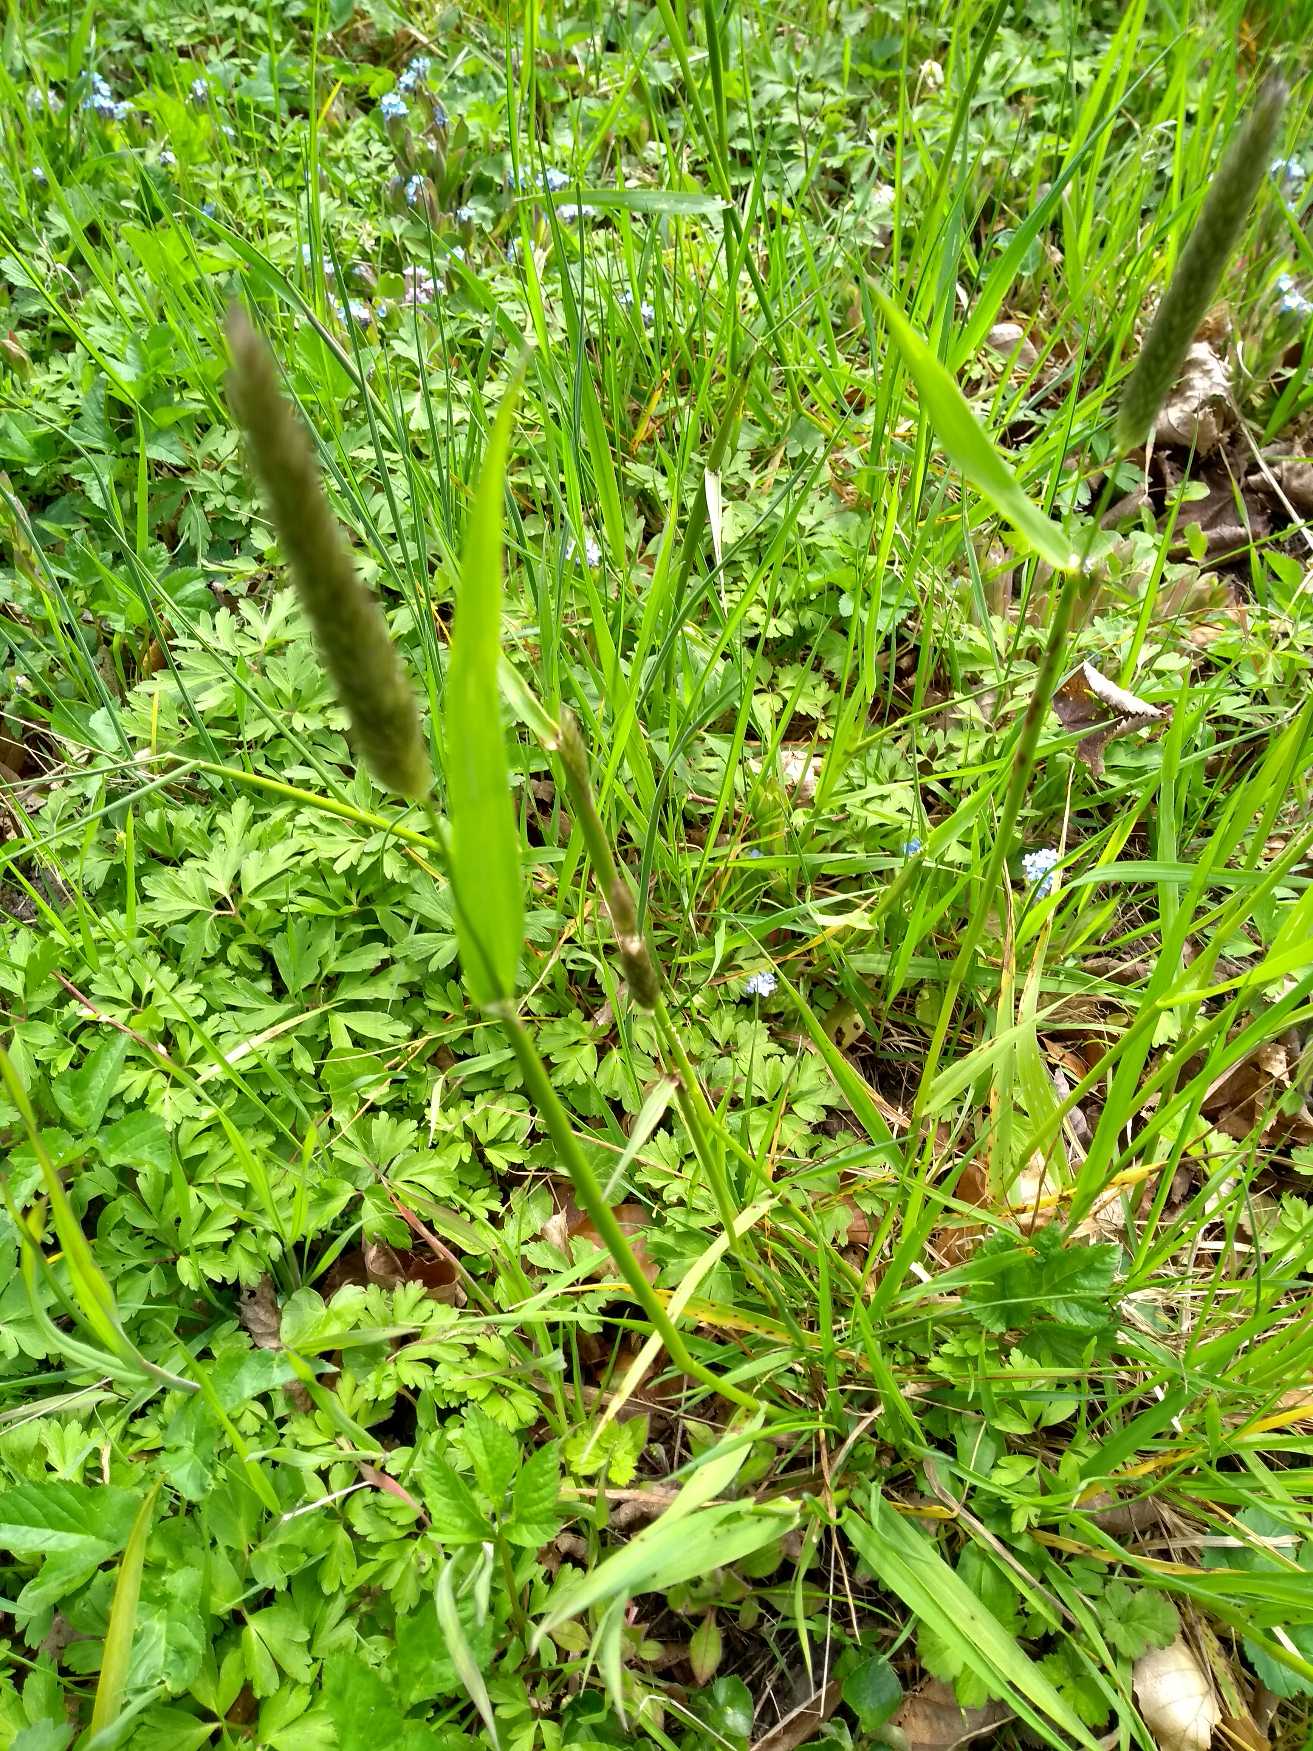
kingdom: Plantae
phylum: Tracheophyta
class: Liliopsida
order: Poales
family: Poaceae
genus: Alopecurus
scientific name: Alopecurus pratensis
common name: Eng-rævehale
